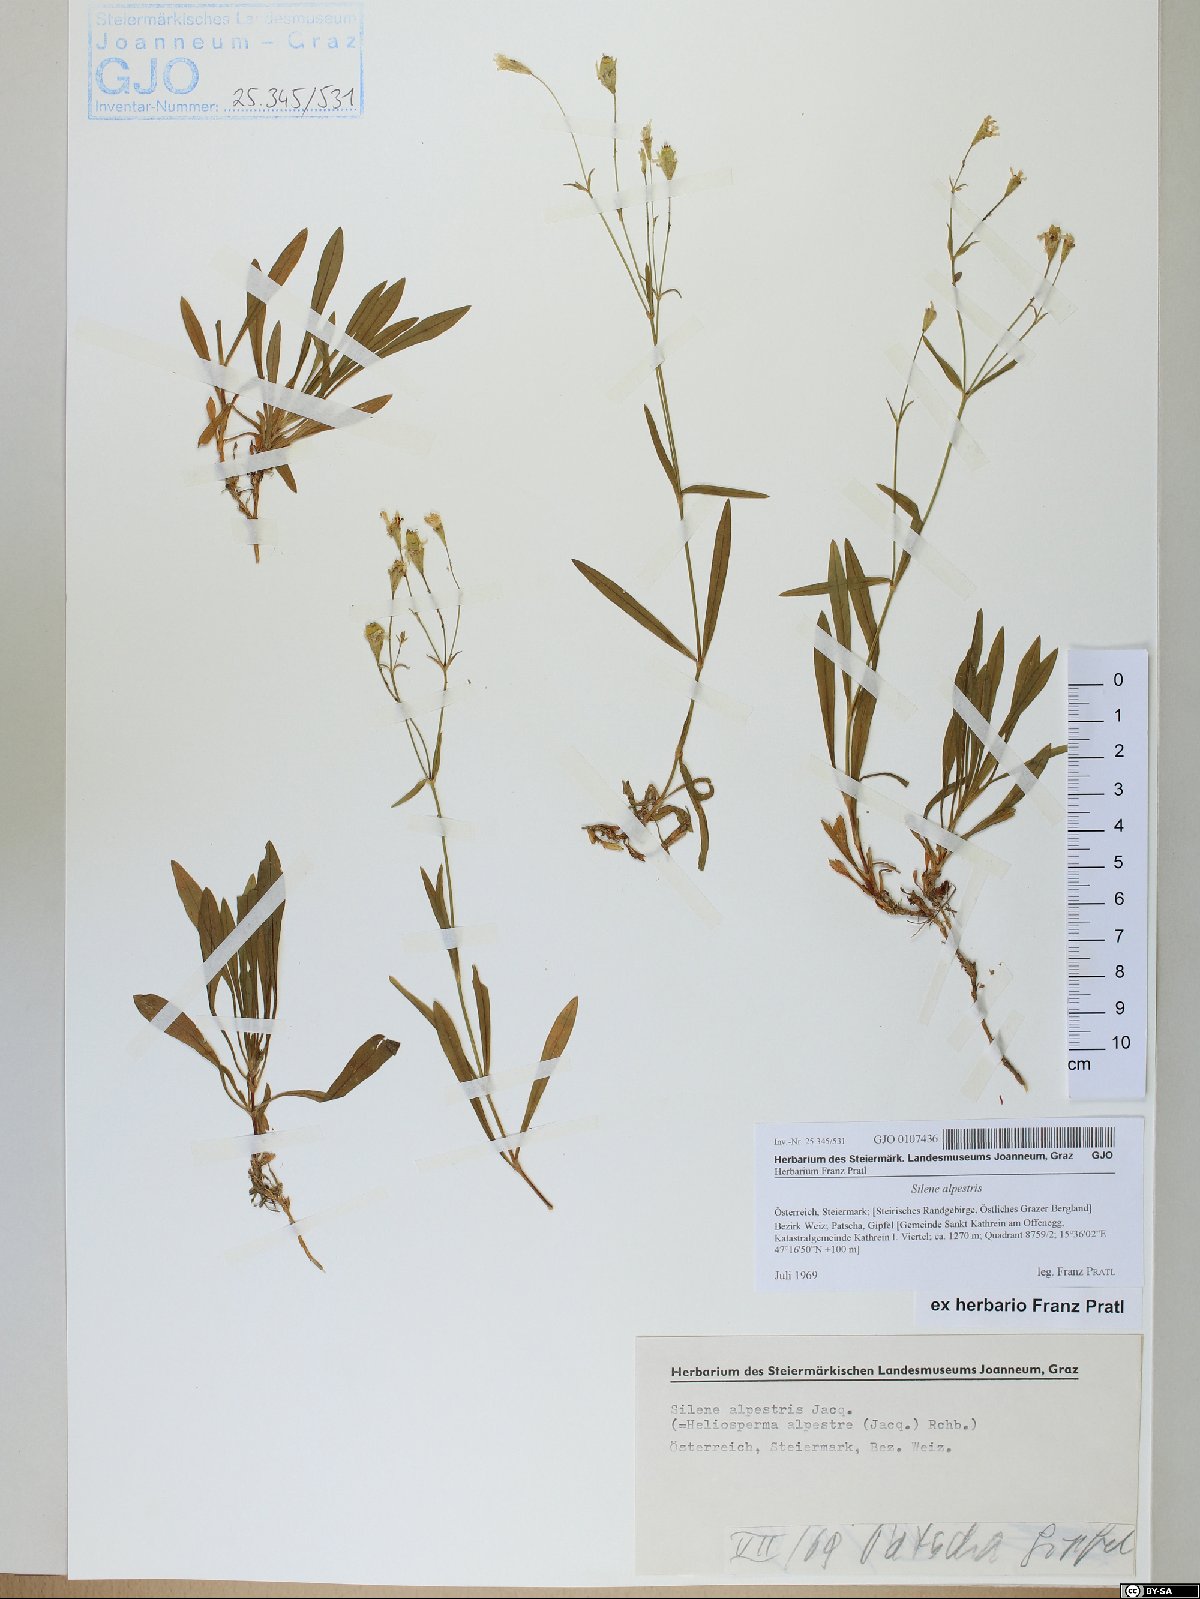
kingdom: Plantae
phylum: Tracheophyta
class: Magnoliopsida
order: Caryophyllales
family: Caryophyllaceae
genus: Heliosperma
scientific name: Heliosperma alpestre
